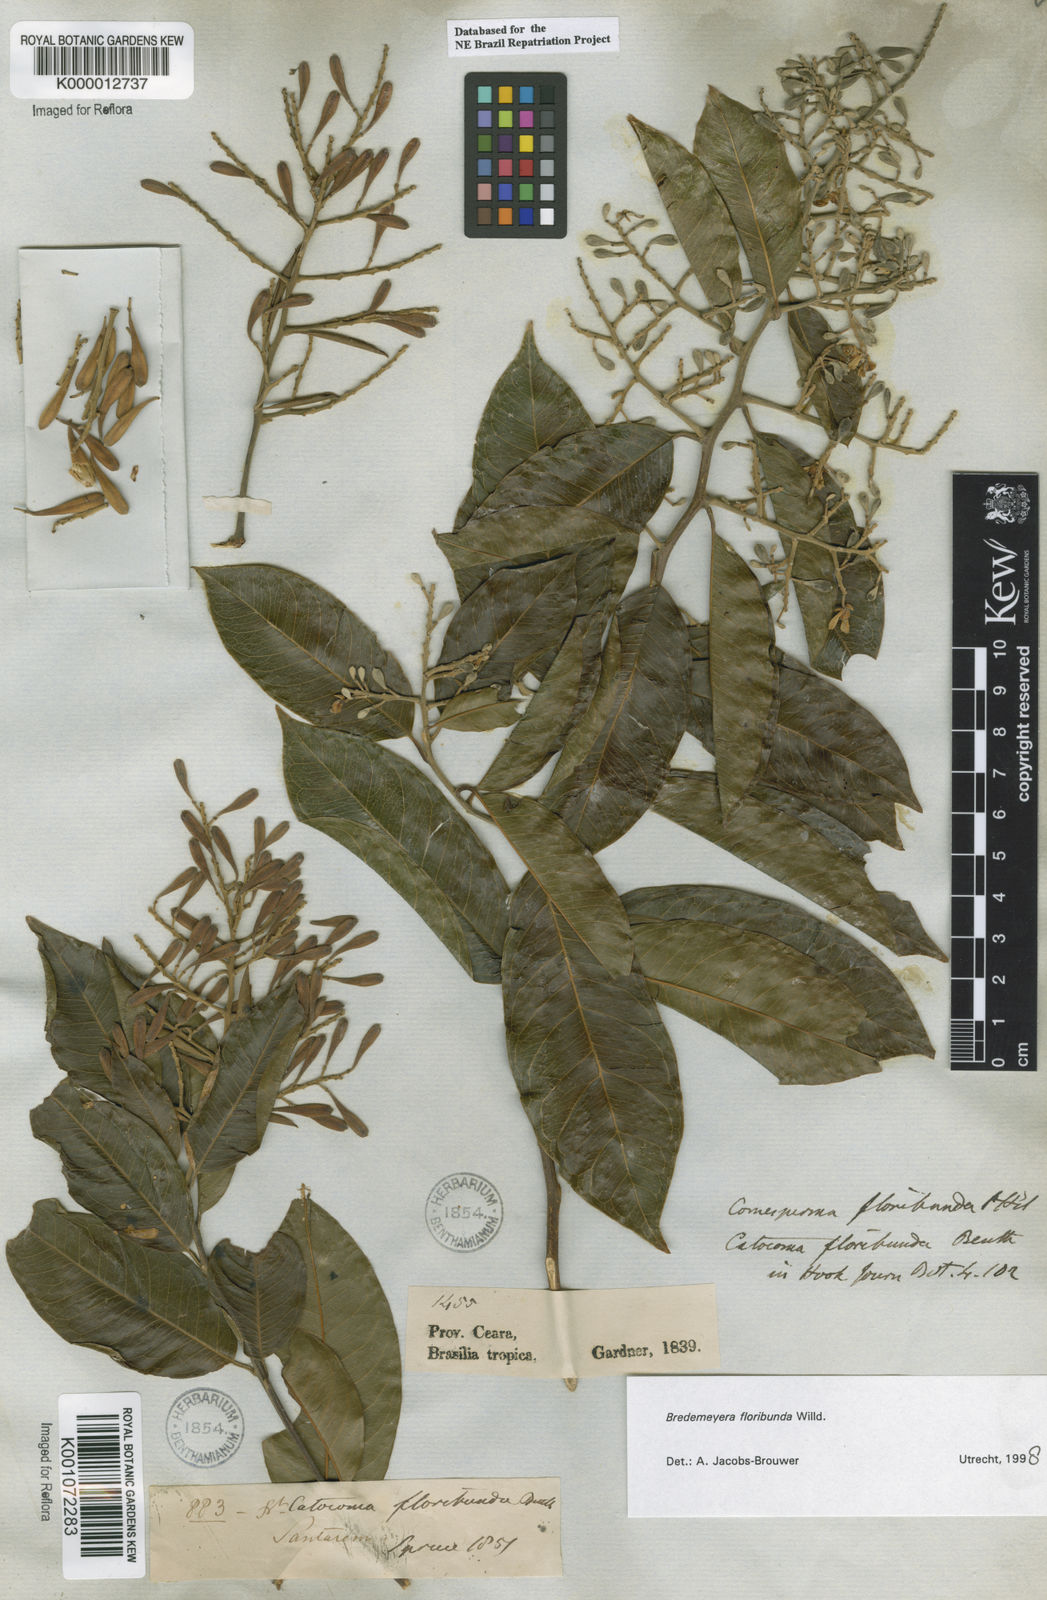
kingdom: Plantae
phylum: Tracheophyta
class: Magnoliopsida
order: Fabales
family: Polygalaceae
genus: Bredemeyera
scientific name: Bredemeyera floribunda
